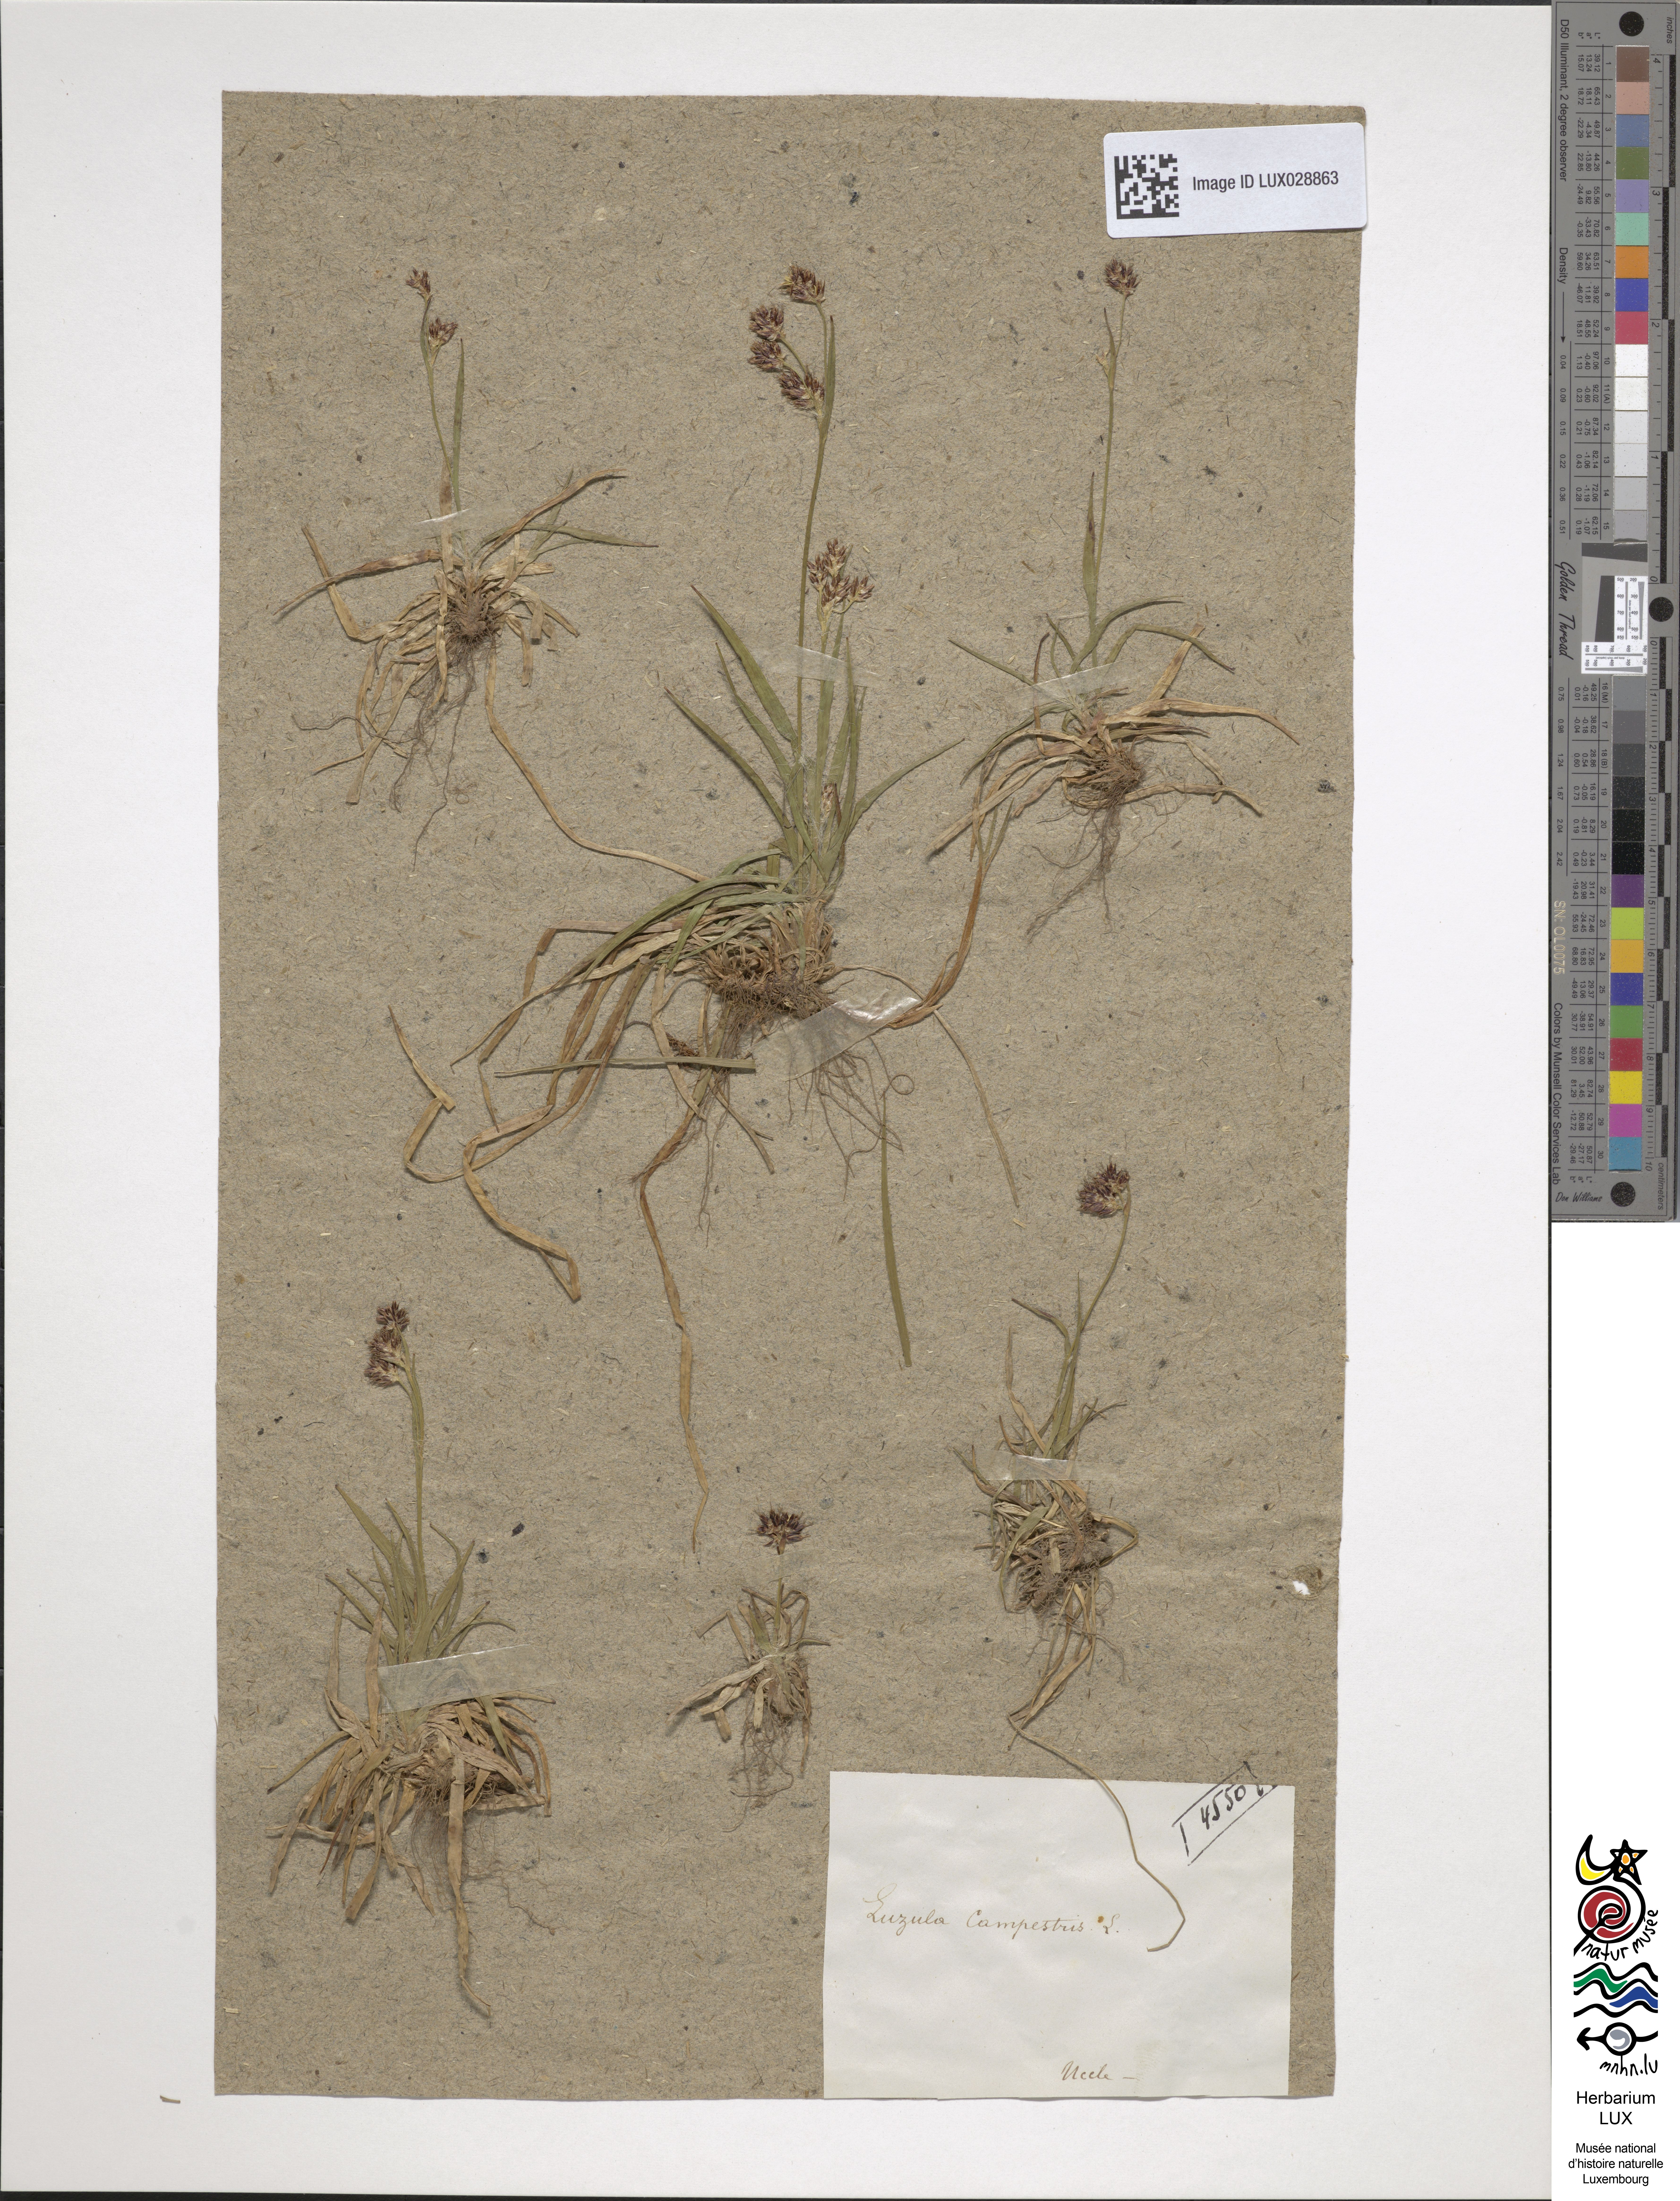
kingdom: Plantae
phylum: Tracheophyta
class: Liliopsida
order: Poales
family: Juncaceae
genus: Luzula
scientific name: Luzula campestris
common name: Field wood-rush
